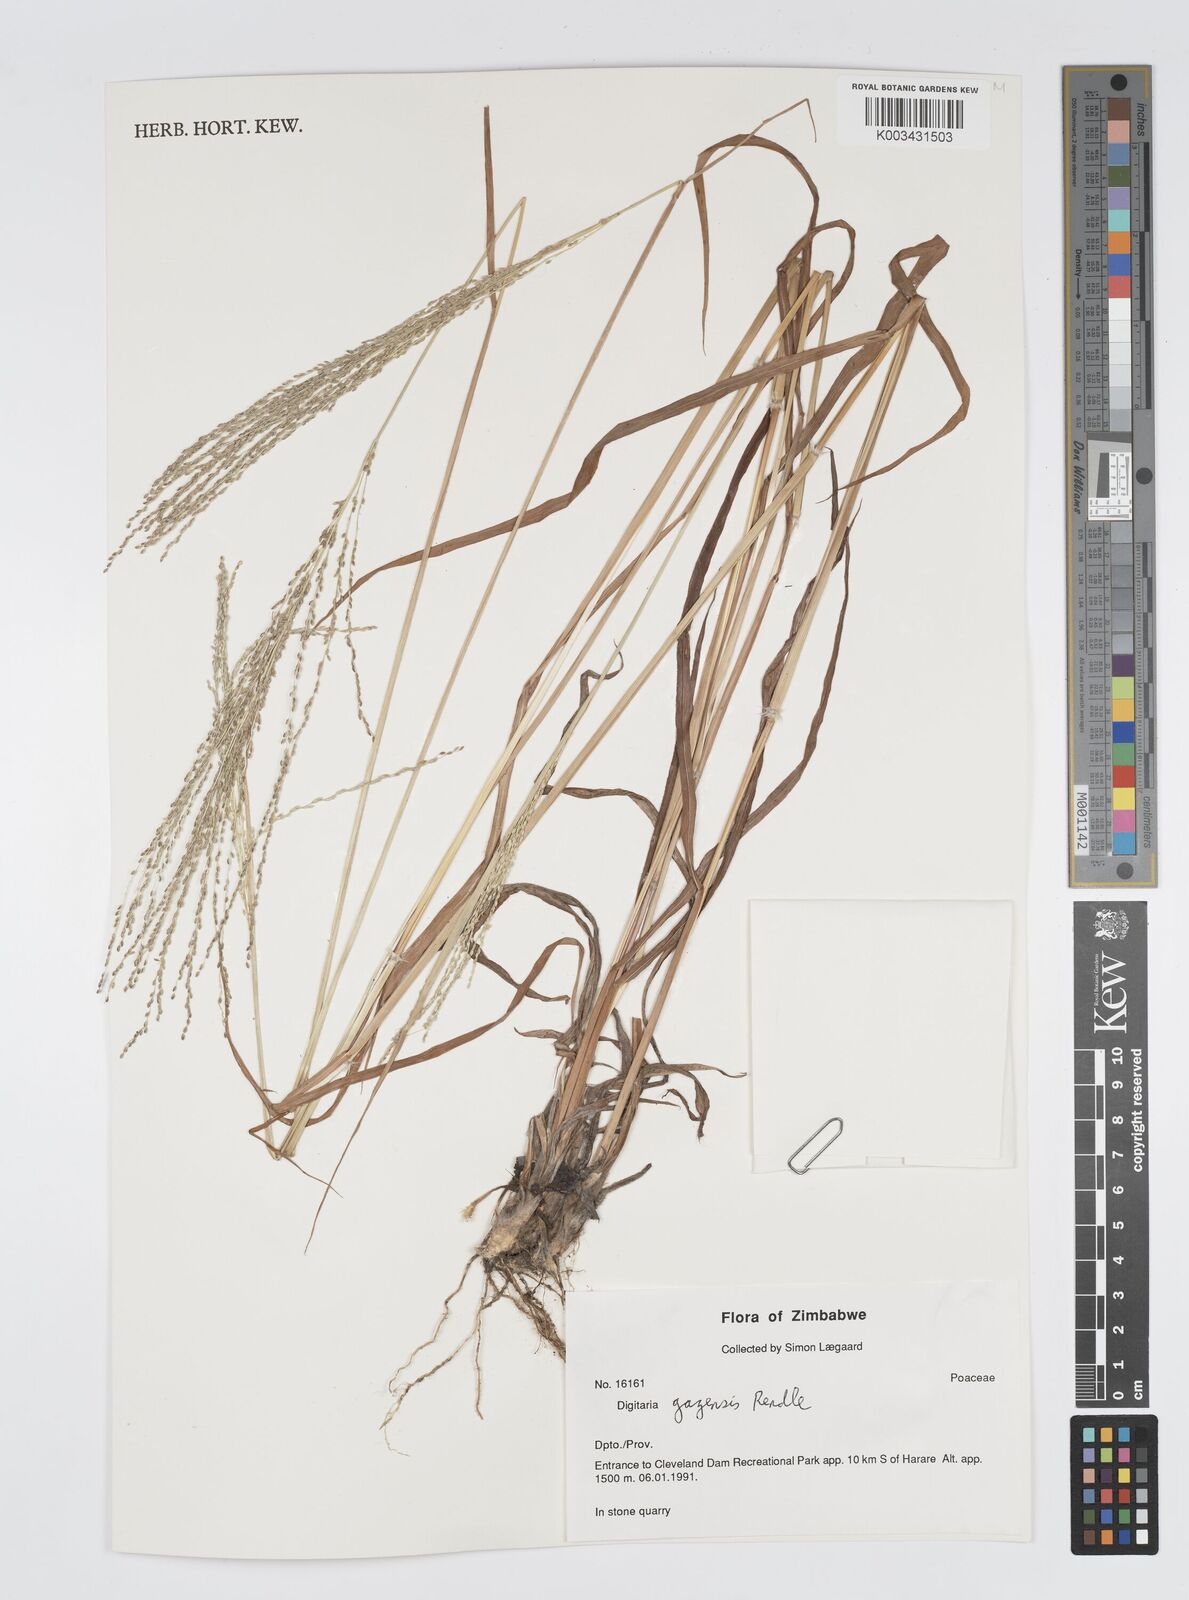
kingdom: Plantae
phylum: Tracheophyta
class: Liliopsida
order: Poales
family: Poaceae
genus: Digitaria
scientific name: Digitaria gazensis
